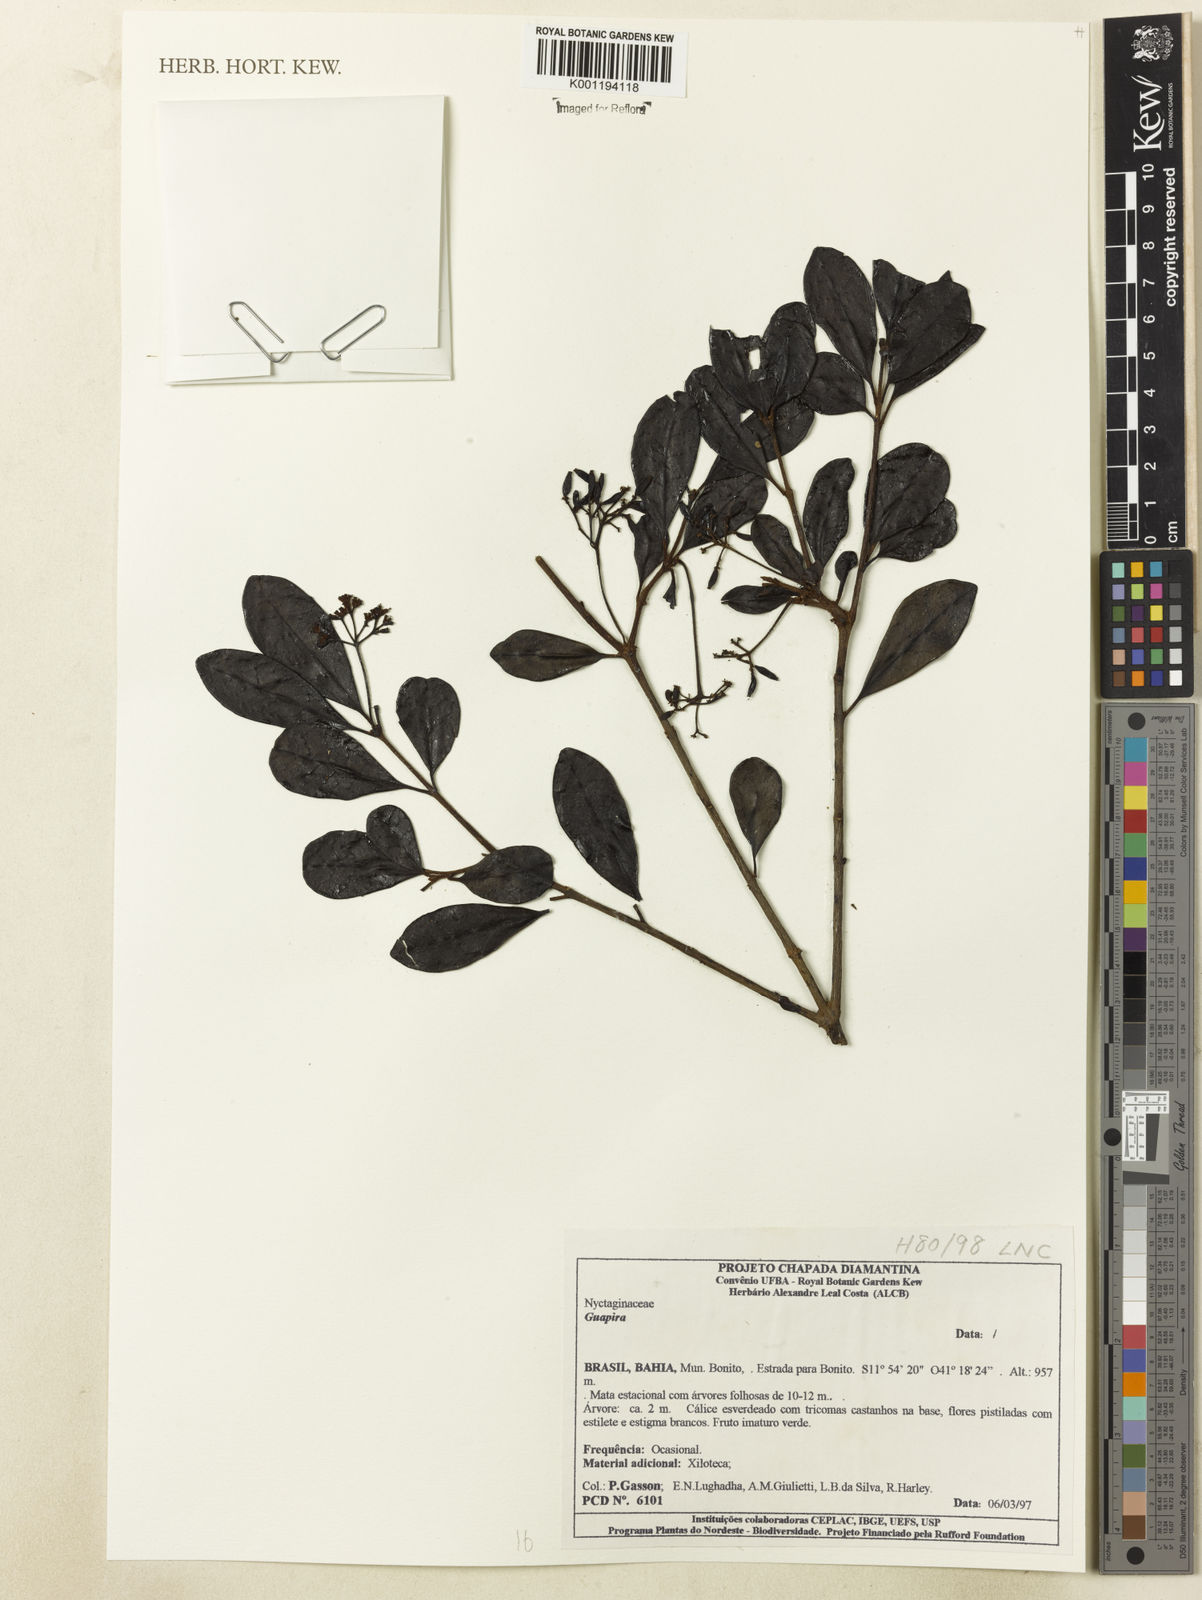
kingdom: Plantae
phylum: Tracheophyta
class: Magnoliopsida
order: Caryophyllales
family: Nyctaginaceae
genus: Guapira
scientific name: Guapira
